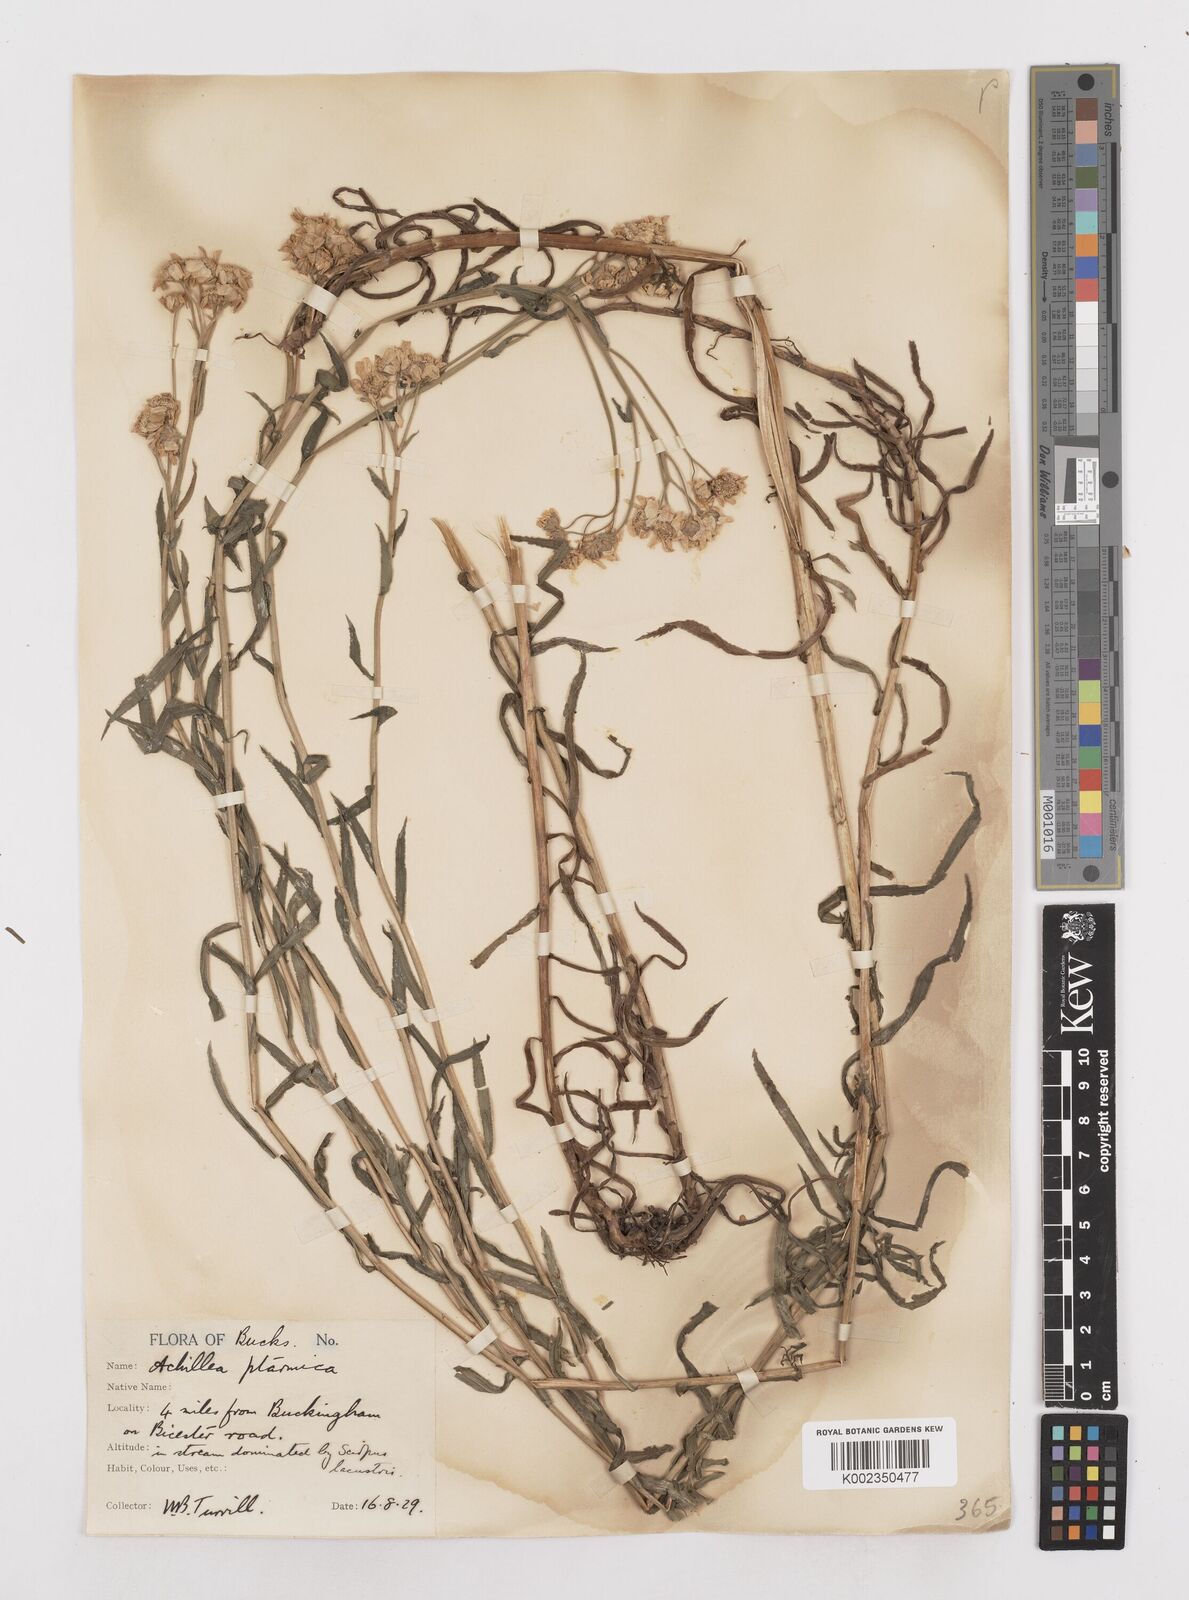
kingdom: Plantae
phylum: Tracheophyta
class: Magnoliopsida
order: Asterales
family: Asteraceae
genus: Achillea
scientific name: Achillea ptarmica
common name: Sneezeweed
